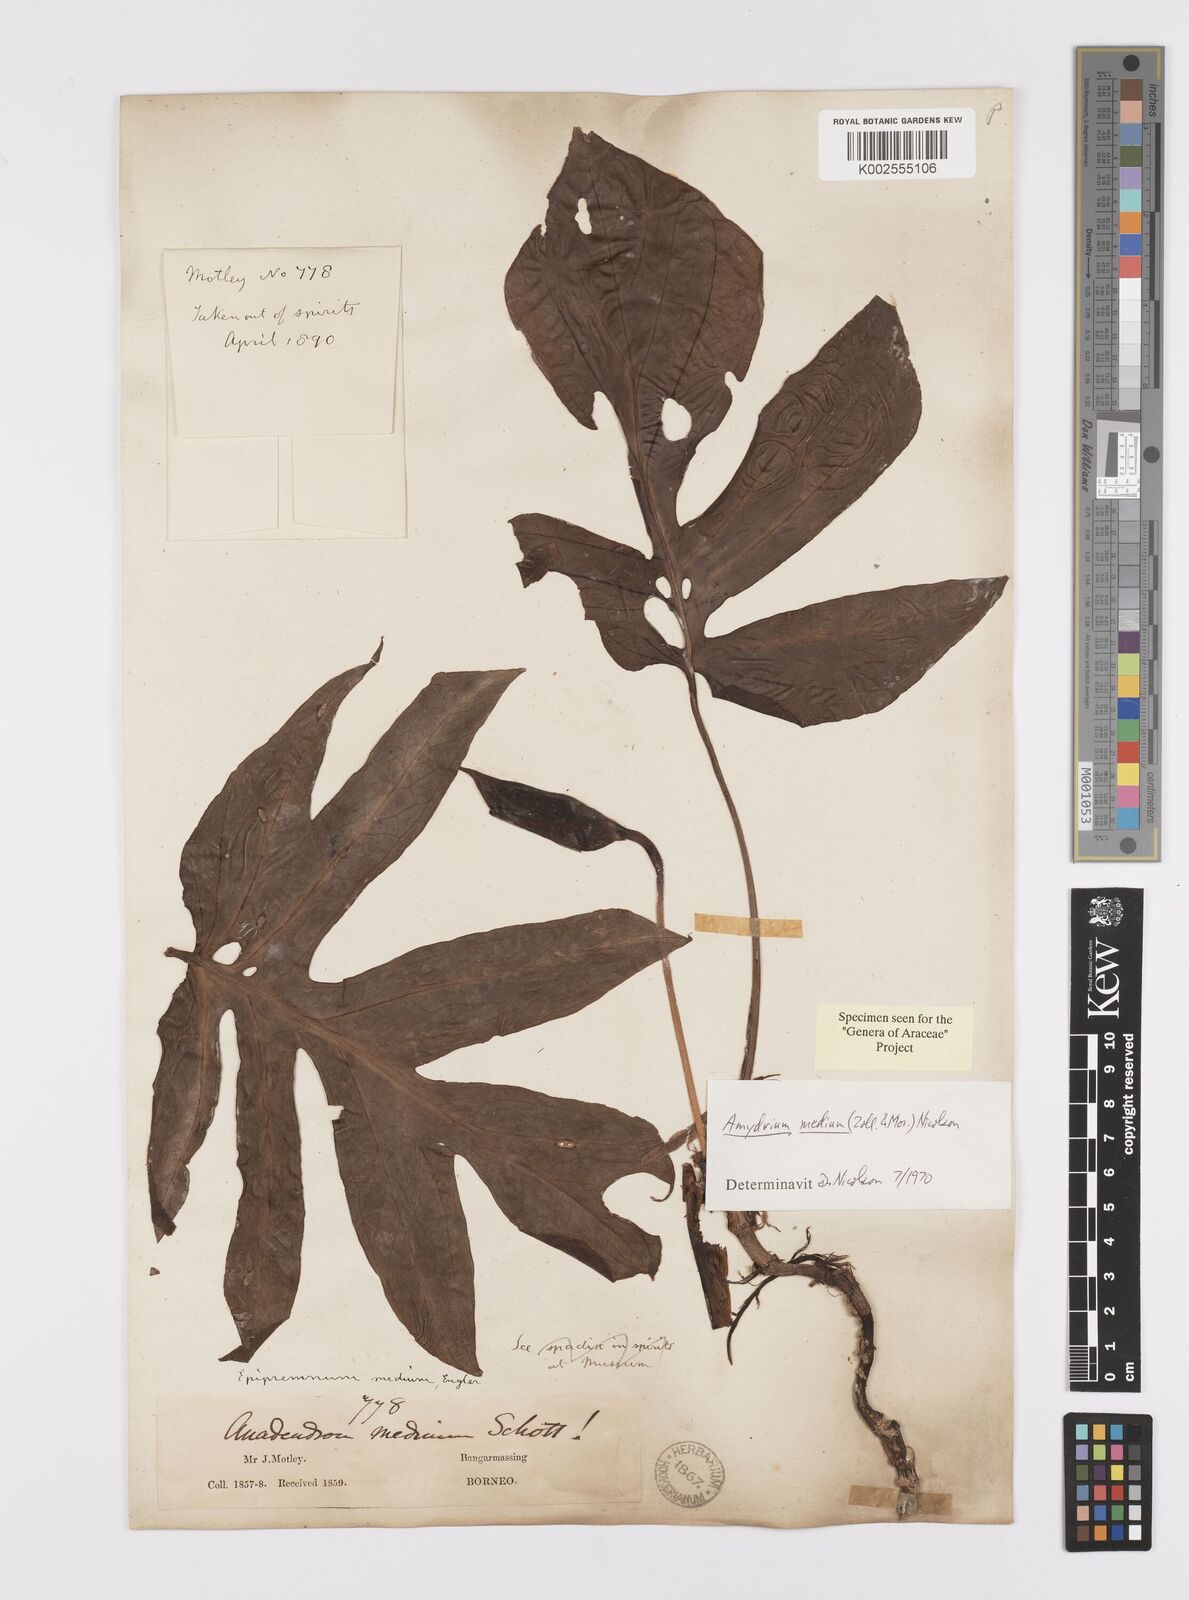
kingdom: Plantae
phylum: Tracheophyta
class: Liliopsida
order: Alismatales
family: Araceae
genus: Amydrium
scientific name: Amydrium medium
